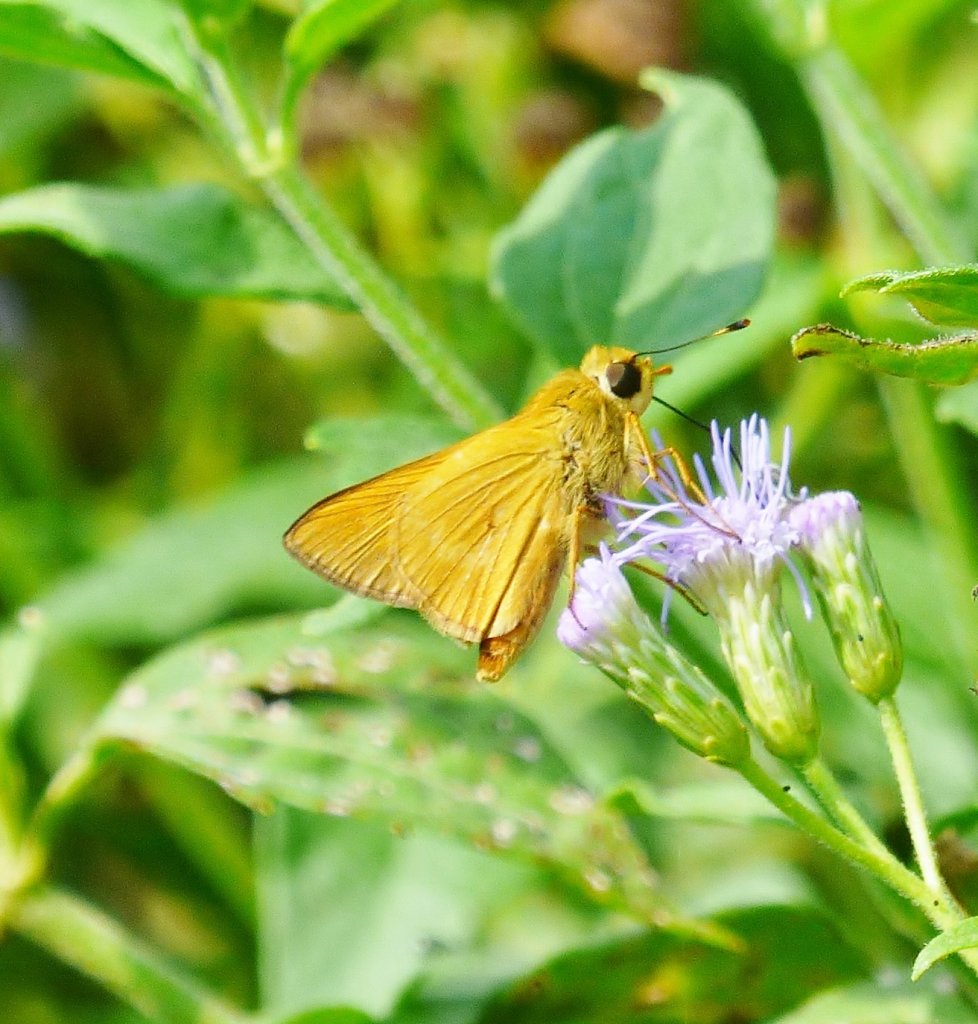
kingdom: Animalia
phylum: Arthropoda
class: Insecta
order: Lepidoptera
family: Hesperiidae
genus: Mellana
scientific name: Mellana eulogius
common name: Common Mellana
